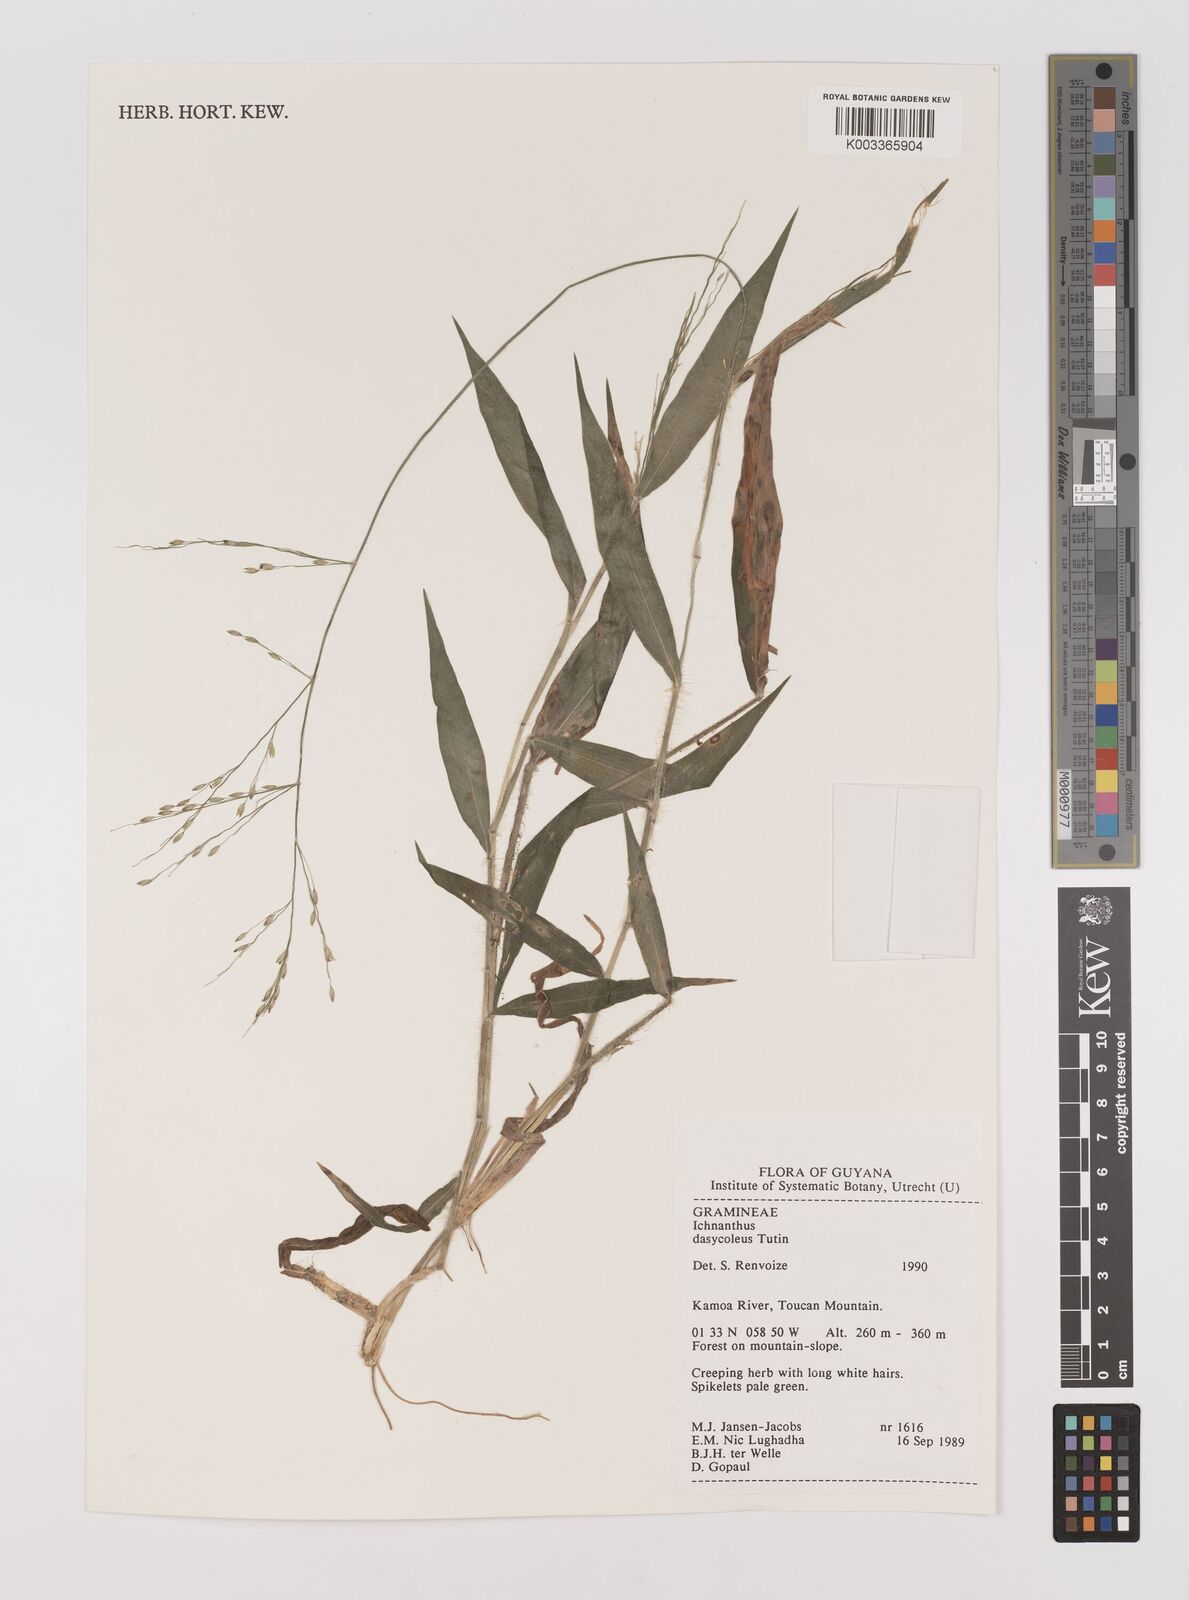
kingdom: Plantae
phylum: Tracheophyta
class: Liliopsida
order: Poales
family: Poaceae
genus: Ichnanthus
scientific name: Ichnanthus dasycoleus
